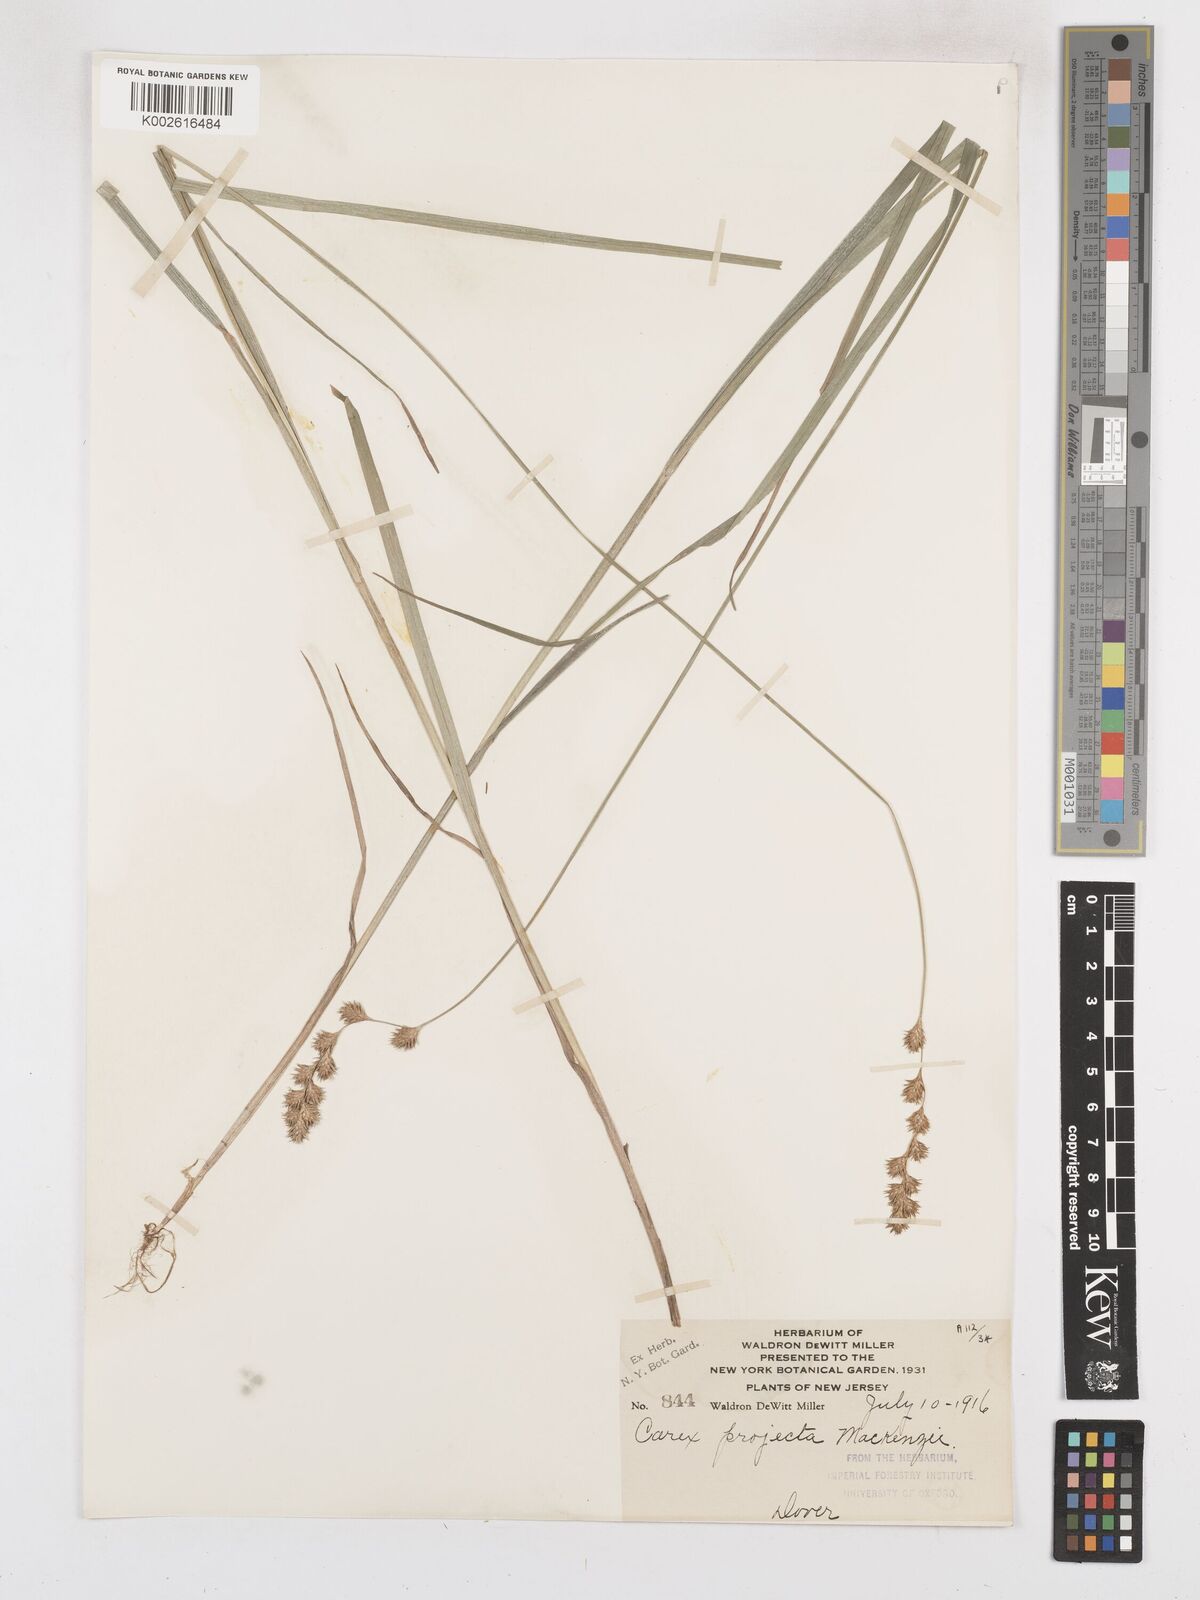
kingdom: Plantae
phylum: Tracheophyta
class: Liliopsida
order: Poales
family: Cyperaceae
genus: Carex
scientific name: Carex projecta
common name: Loose-headed oval sedge
